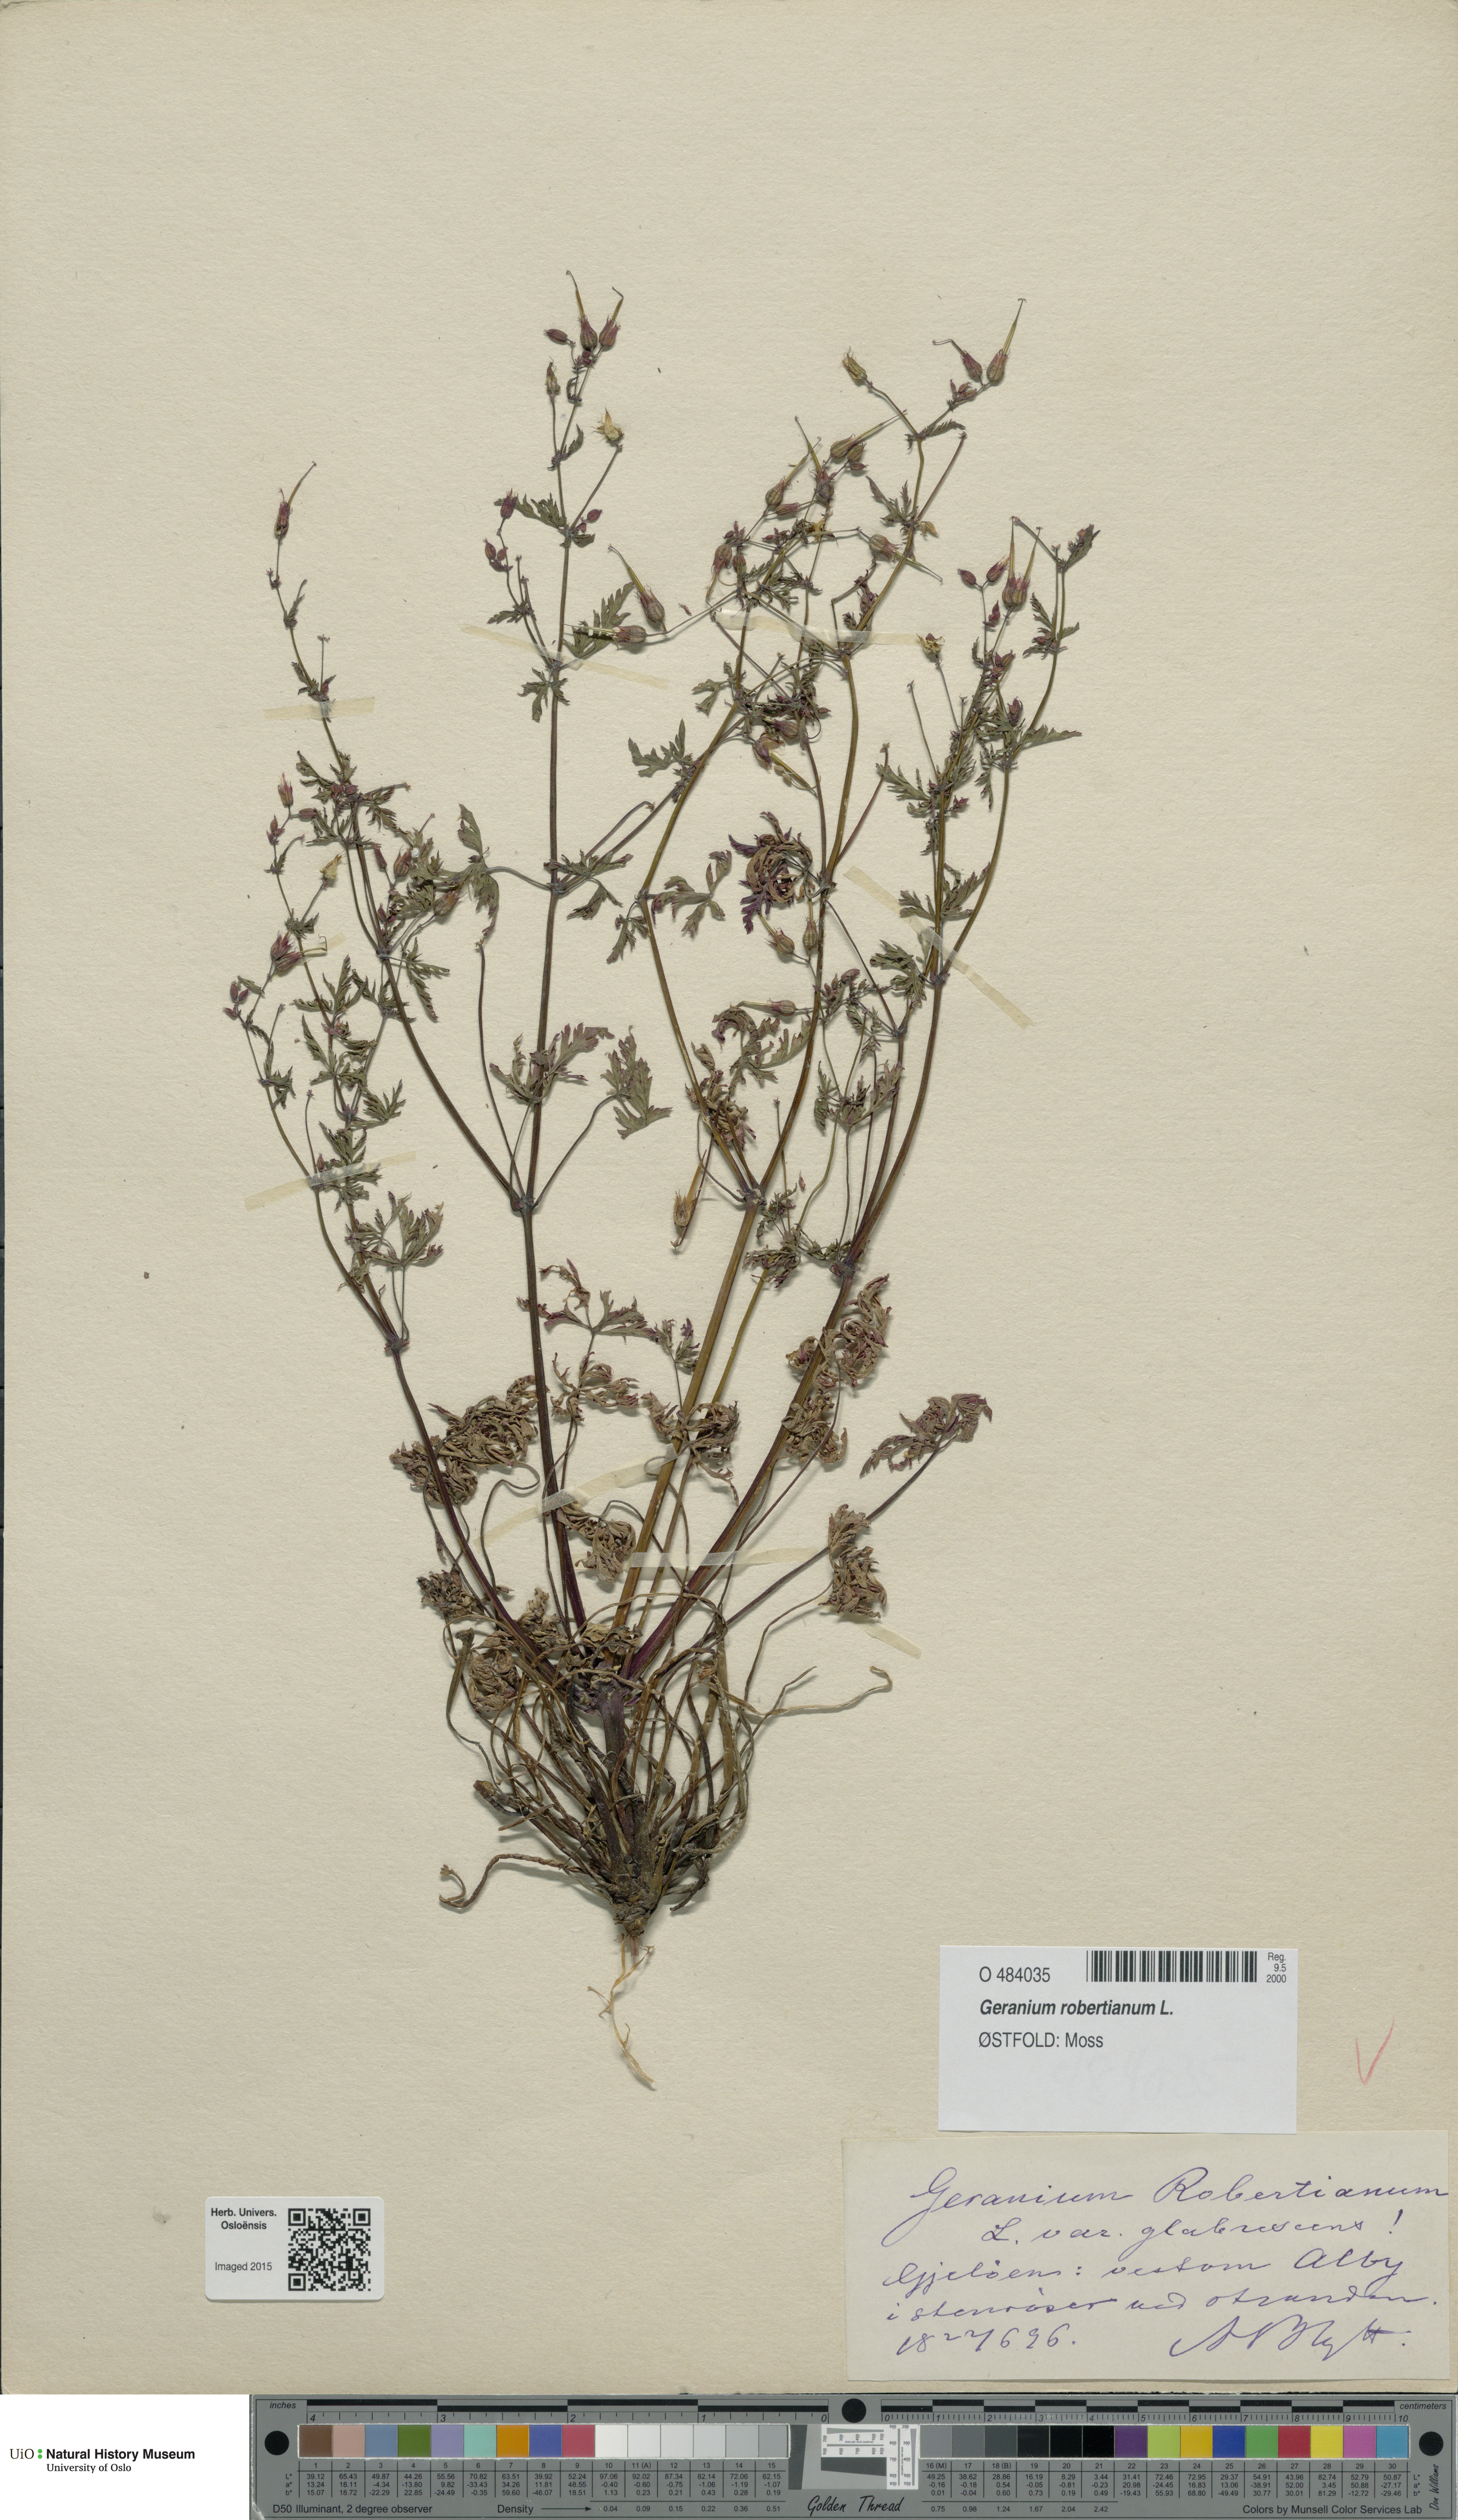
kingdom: Plantae
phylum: Tracheophyta
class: Magnoliopsida
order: Geraniales
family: Geraniaceae
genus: Geranium
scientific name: Geranium robertianum
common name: Herb-robert
